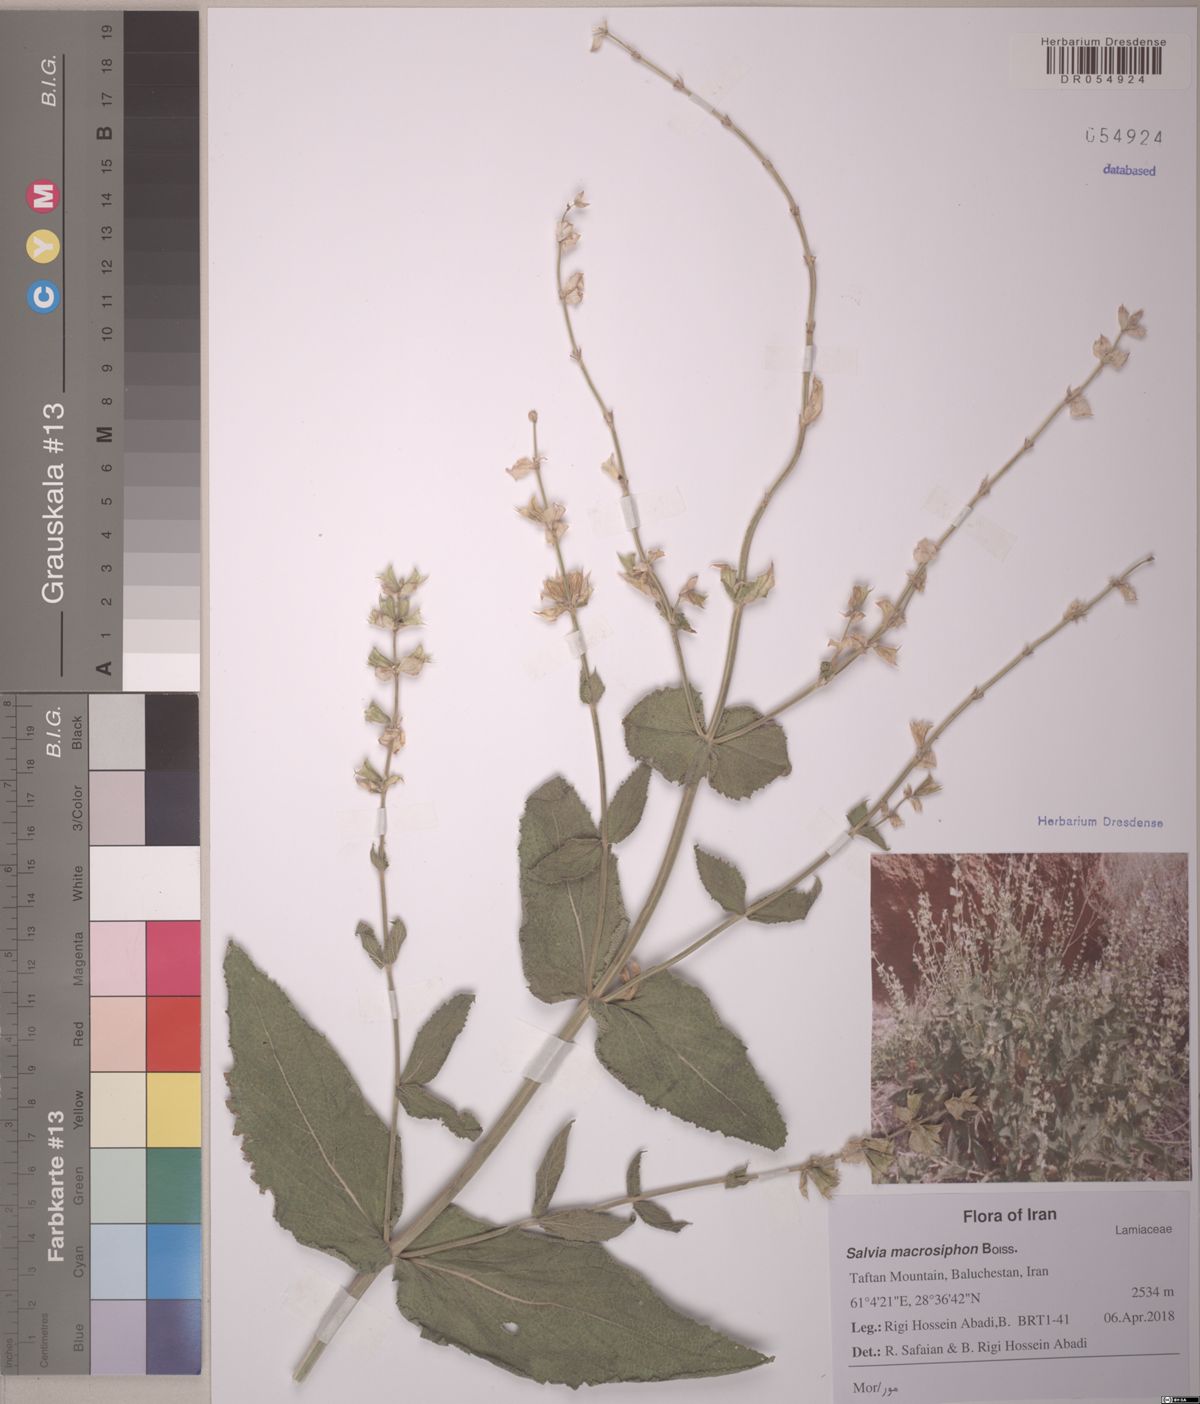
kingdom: Plantae
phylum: Tracheophyta
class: Magnoliopsida
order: Lamiales
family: Lamiaceae
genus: Salvia
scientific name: Salvia rhytidea
